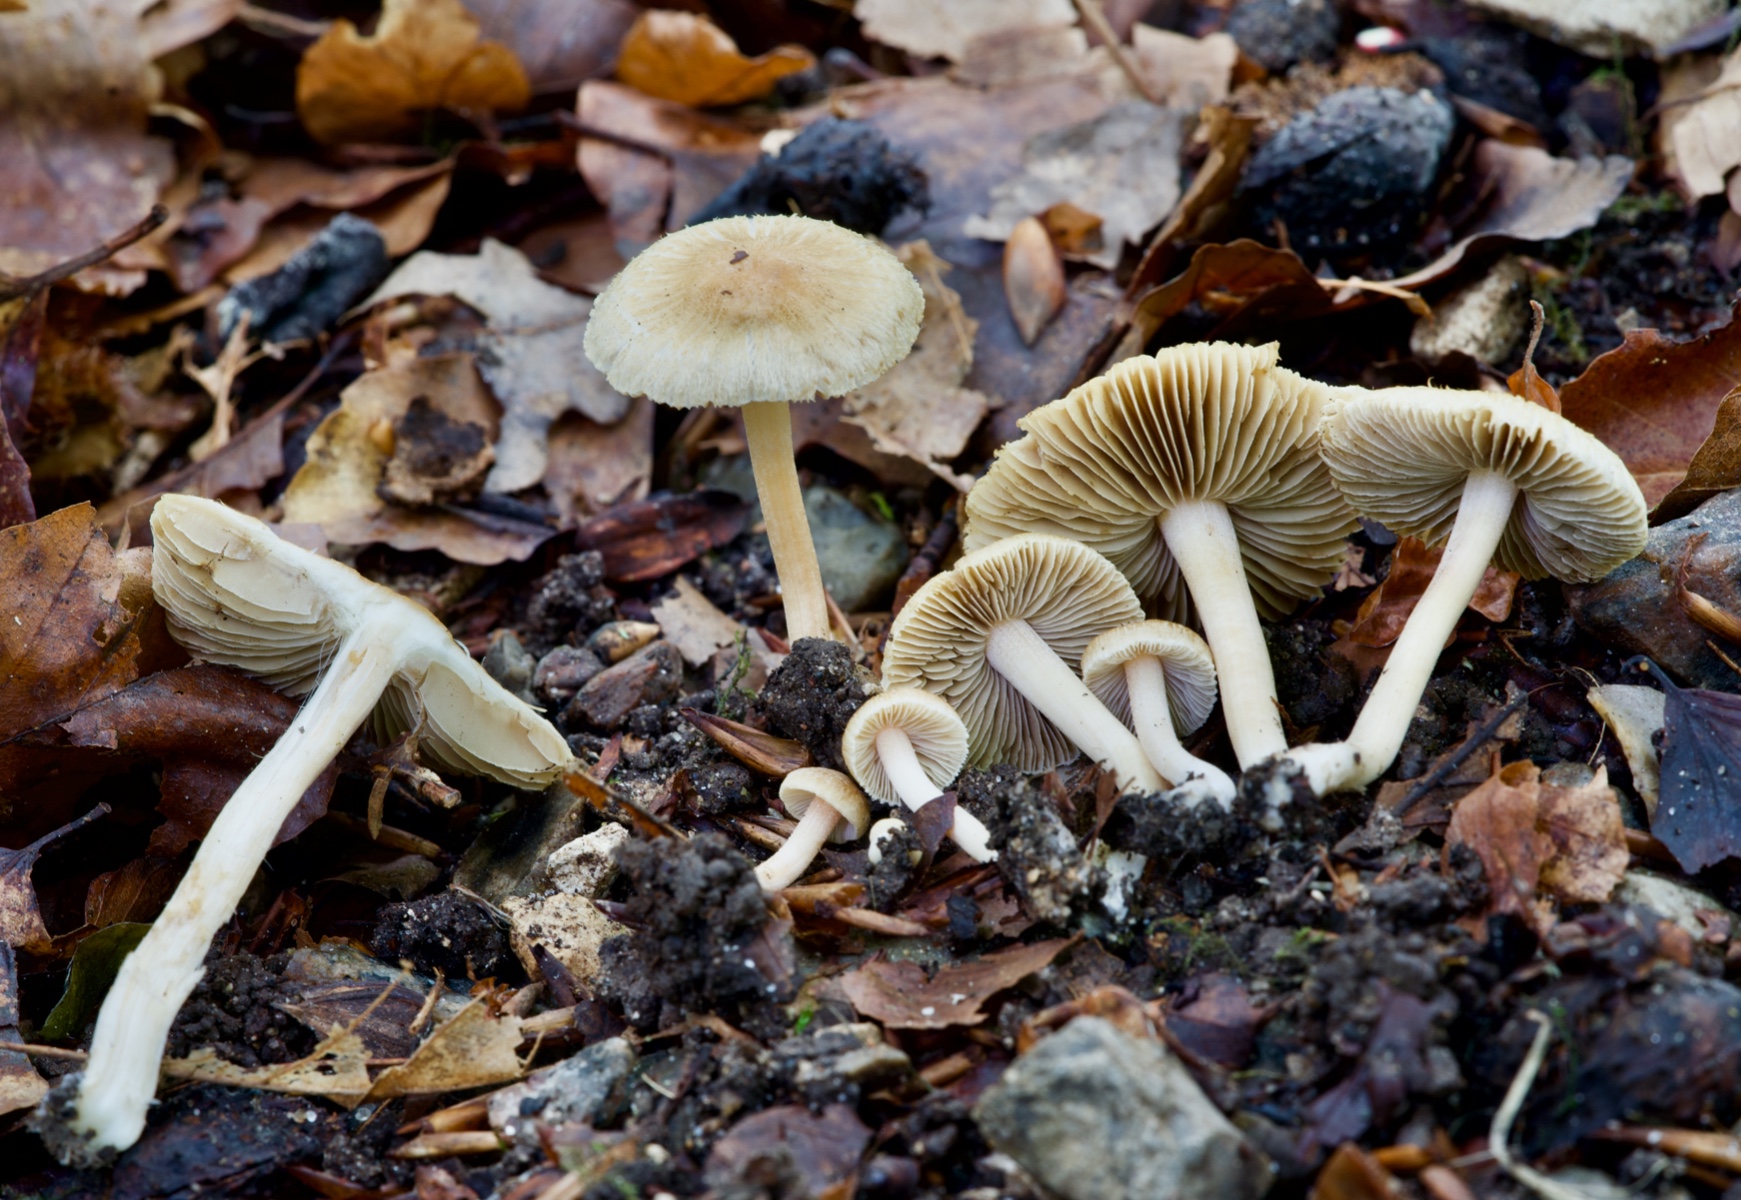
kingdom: Fungi
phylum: Basidiomycota
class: Agaricomycetes
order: Agaricales
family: Inocybaceae
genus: Inocybe
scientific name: Inocybe hirtella
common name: mandel-trævlhat
